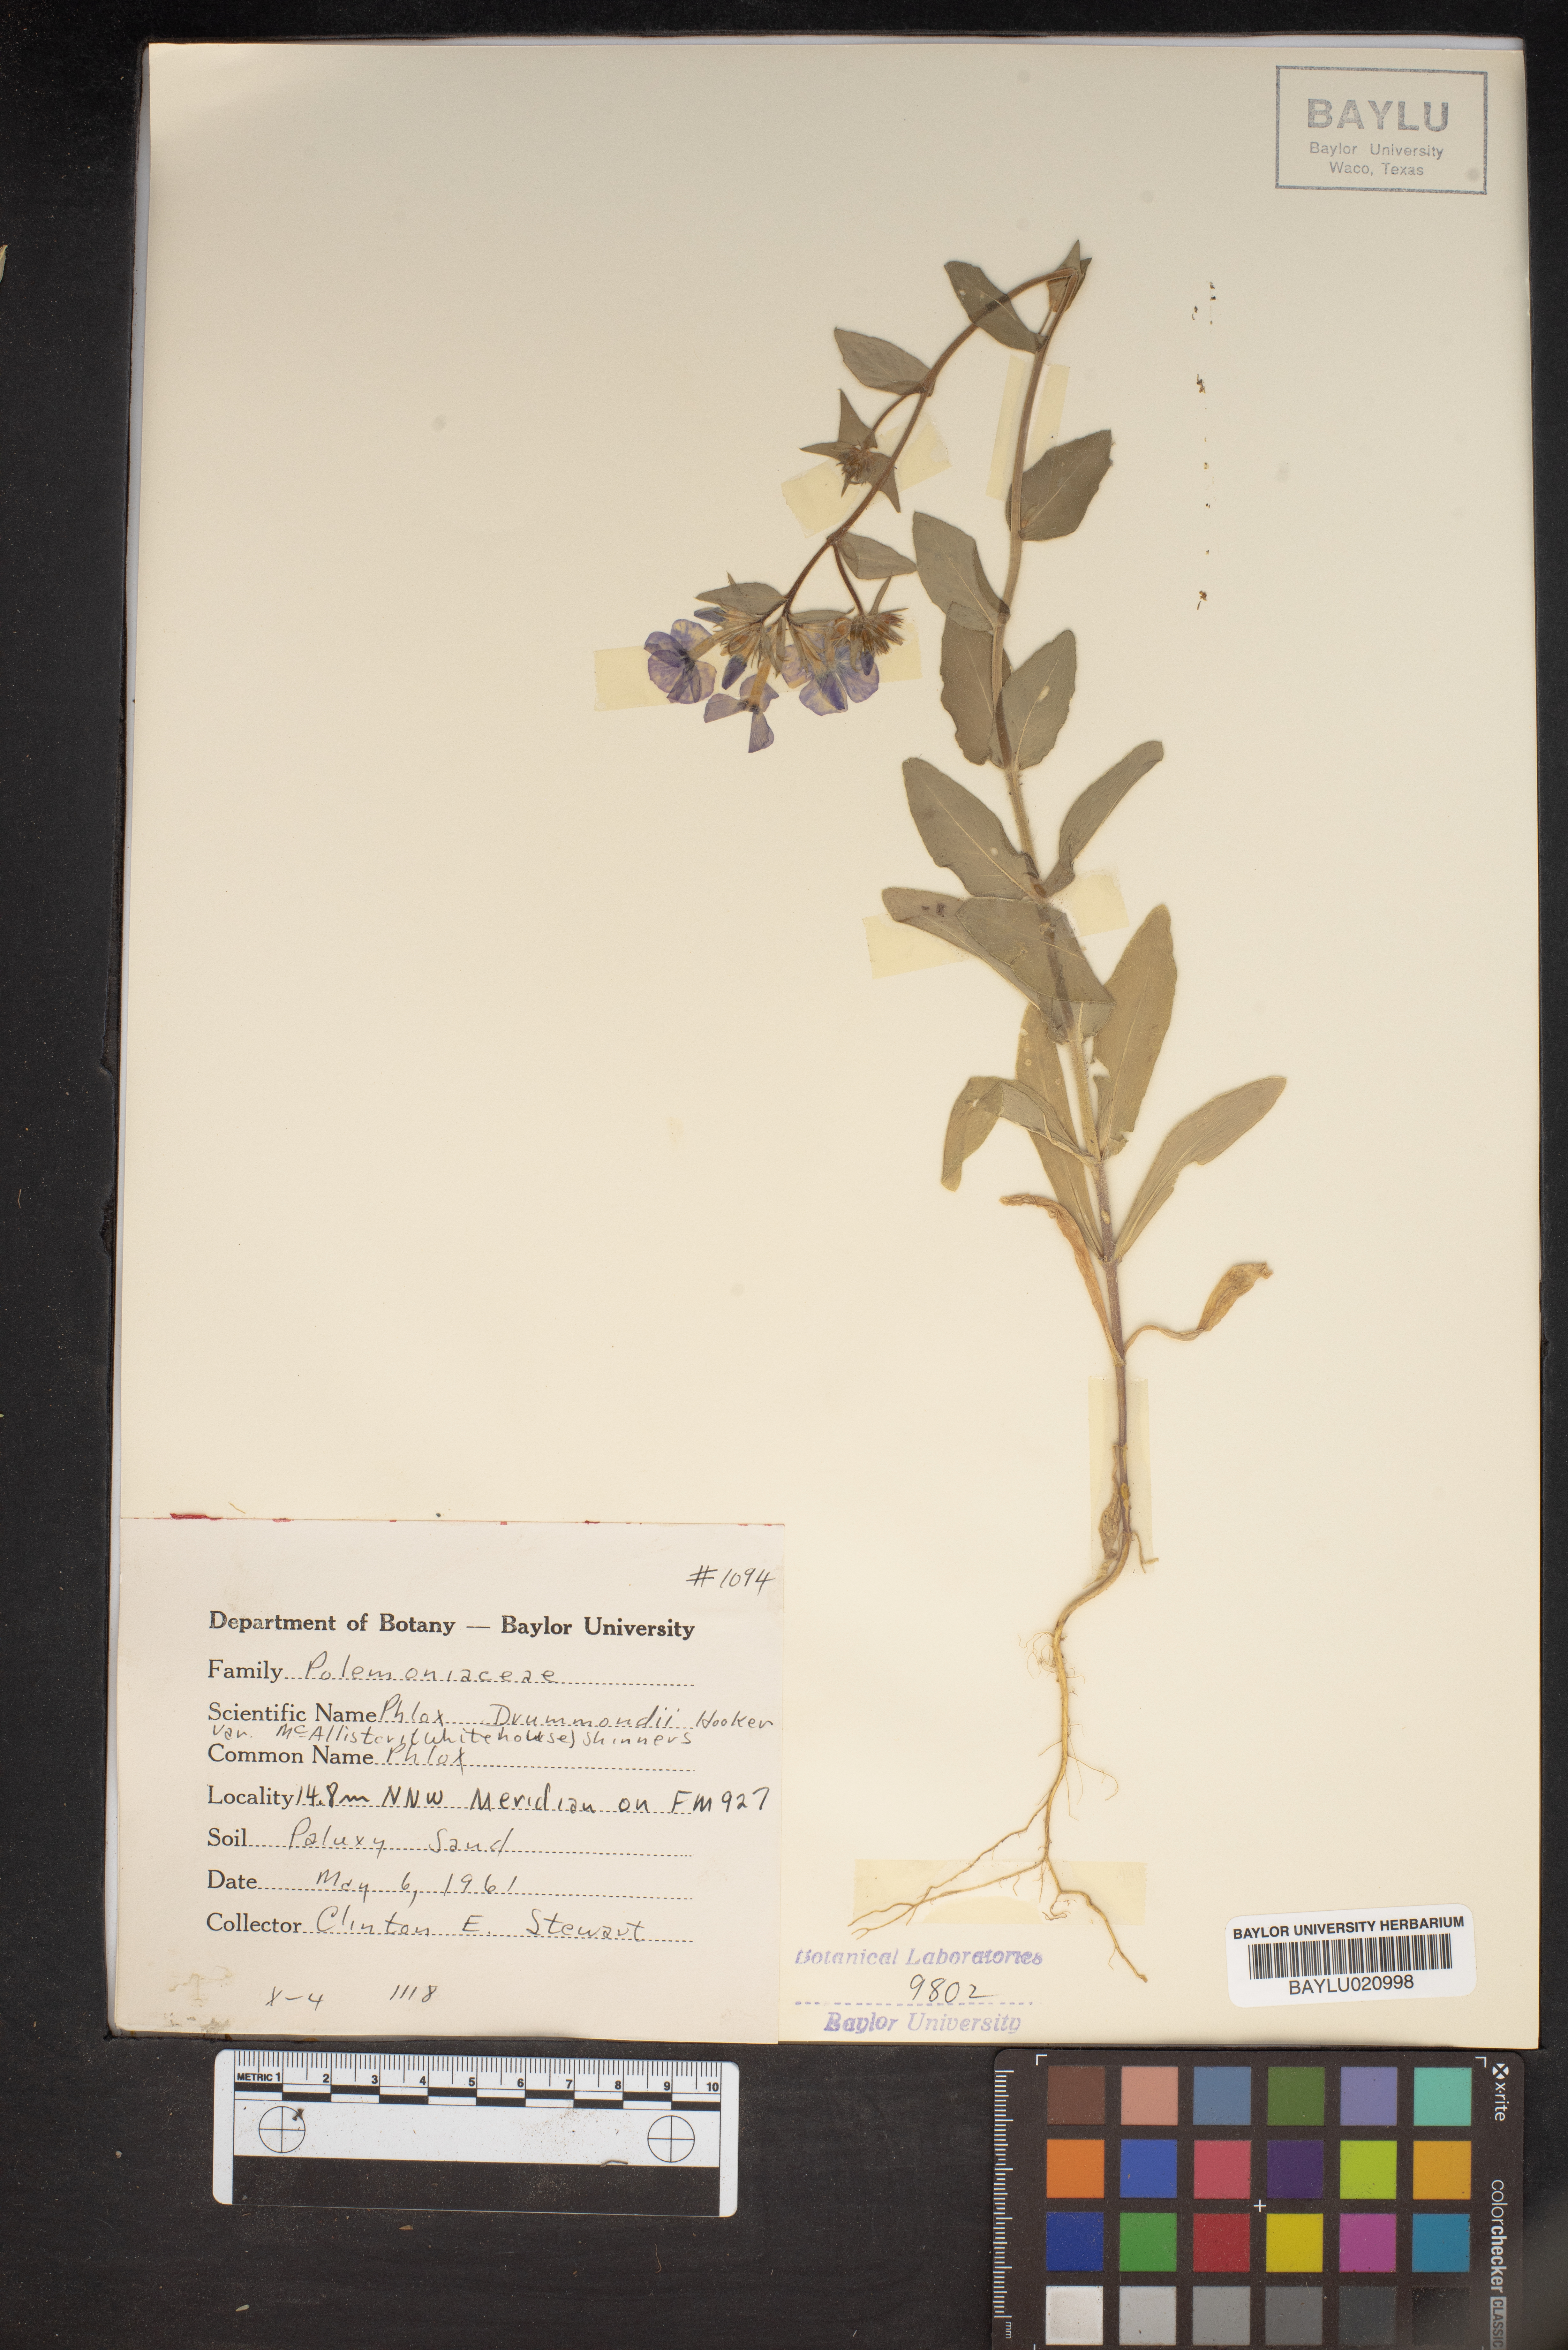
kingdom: Plantae
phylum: Tracheophyta
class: Magnoliopsida
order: Ericales
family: Polemoniaceae
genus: Phlox
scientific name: Phlox drummondii
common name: Drummond's phlox
